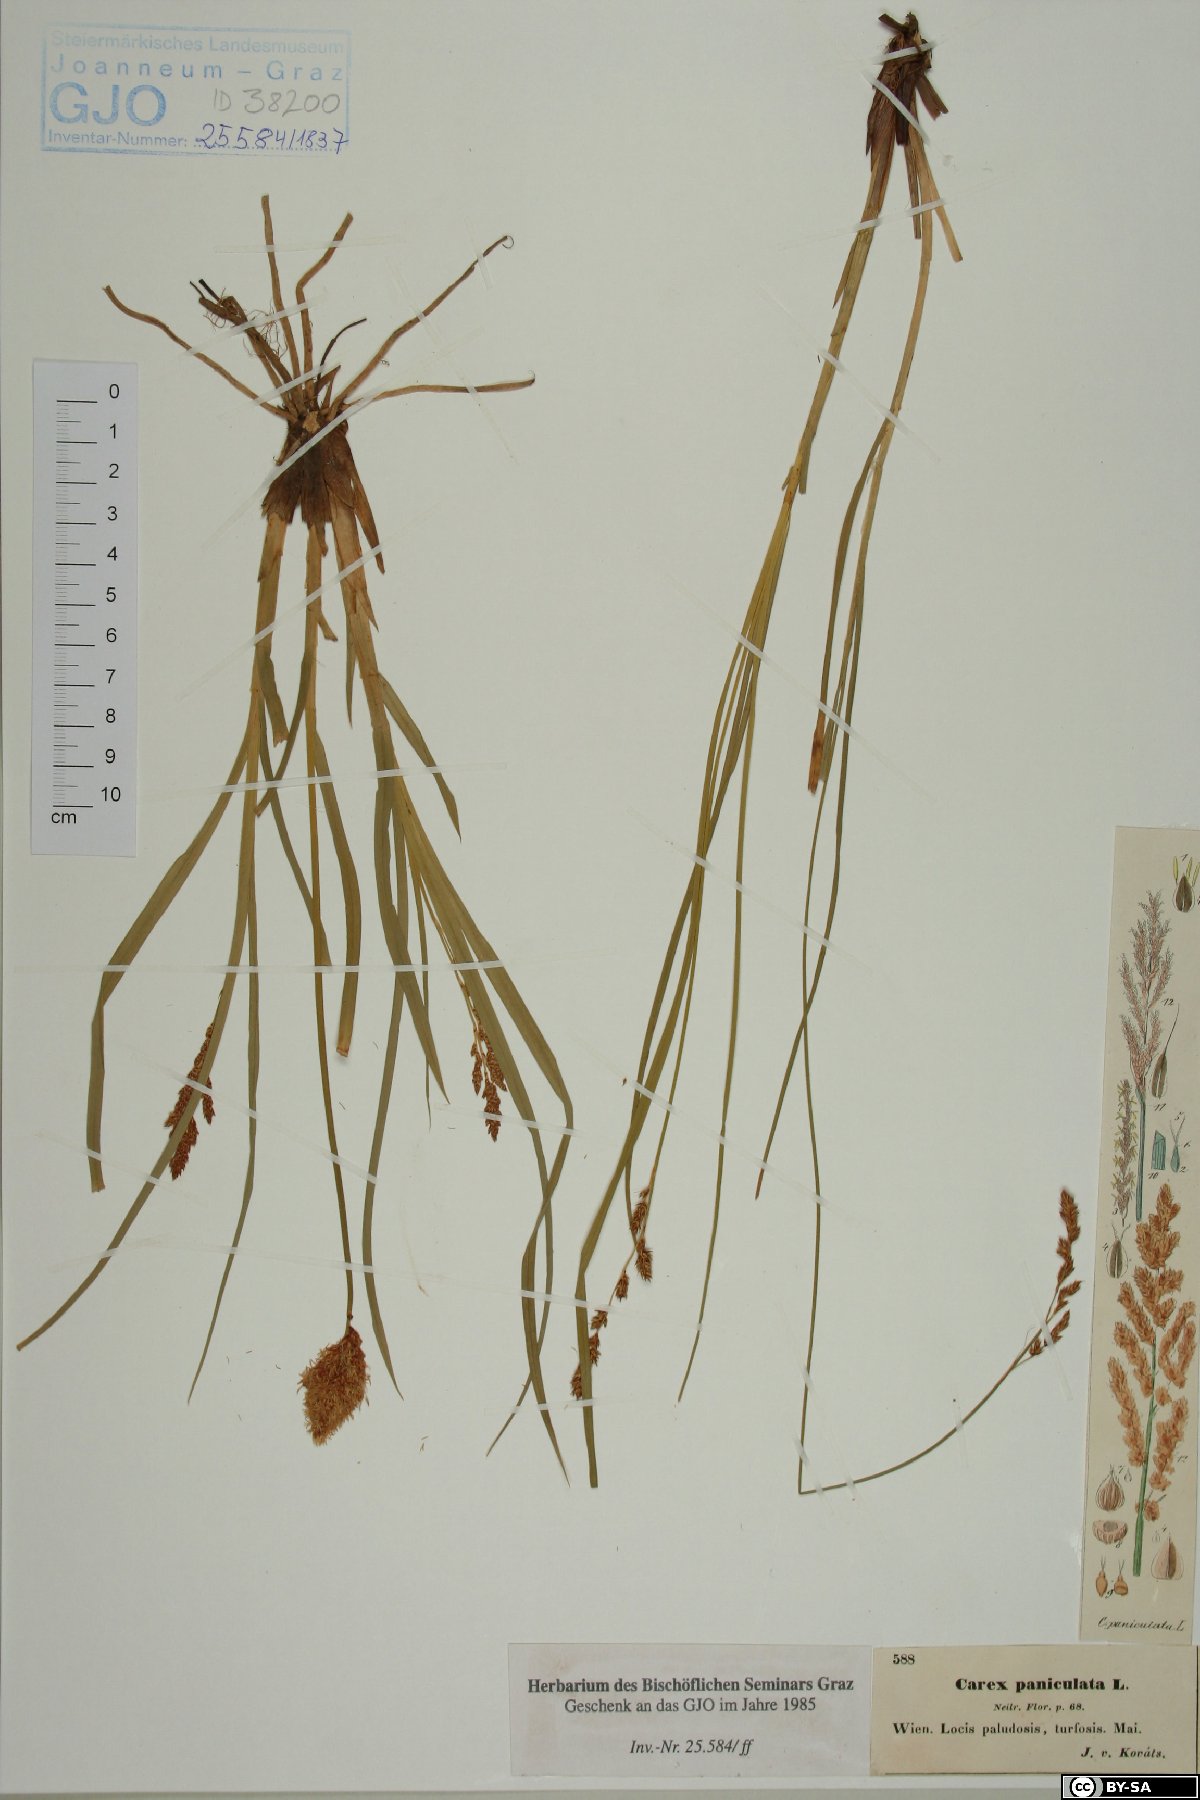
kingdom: Plantae
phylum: Tracheophyta
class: Liliopsida
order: Poales
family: Cyperaceae
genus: Carex
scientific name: Carex paniculata
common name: Greater tussock-sedge
